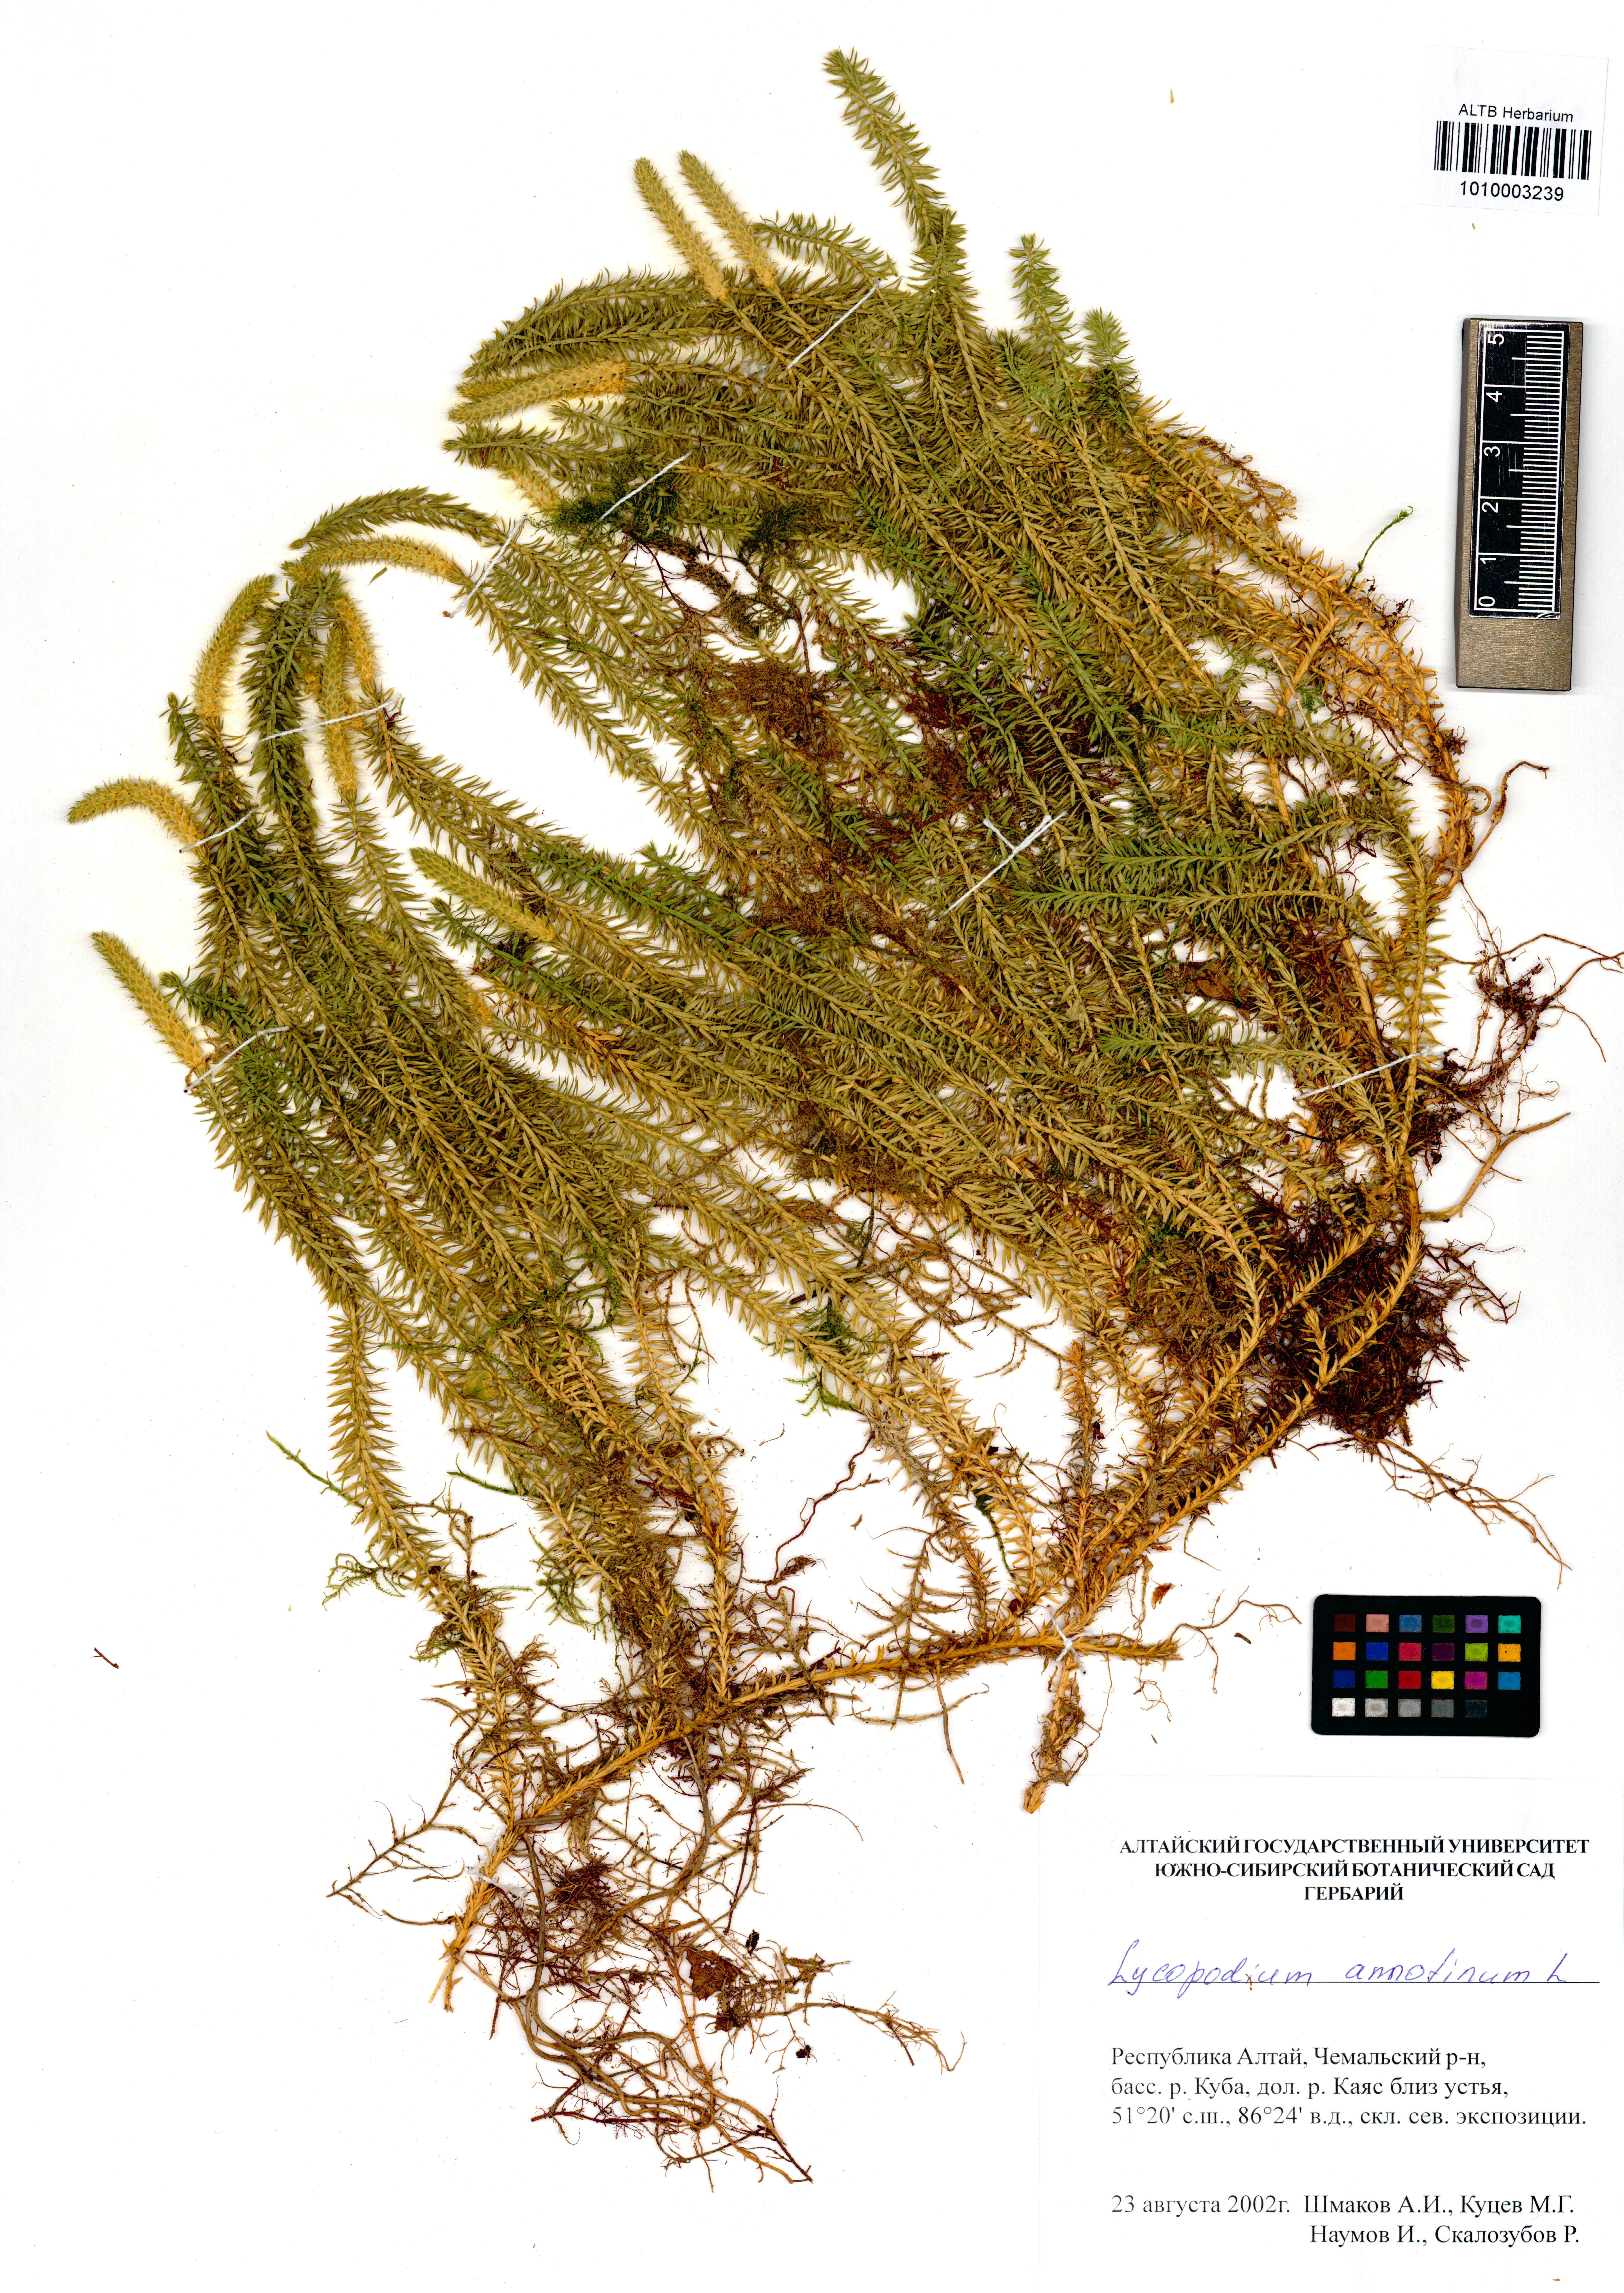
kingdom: Plantae
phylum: Tracheophyta
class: Lycopodiopsida
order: Lycopodiales
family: Lycopodiaceae
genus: Spinulum
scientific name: Spinulum annotinum
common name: Interrupted club-moss
